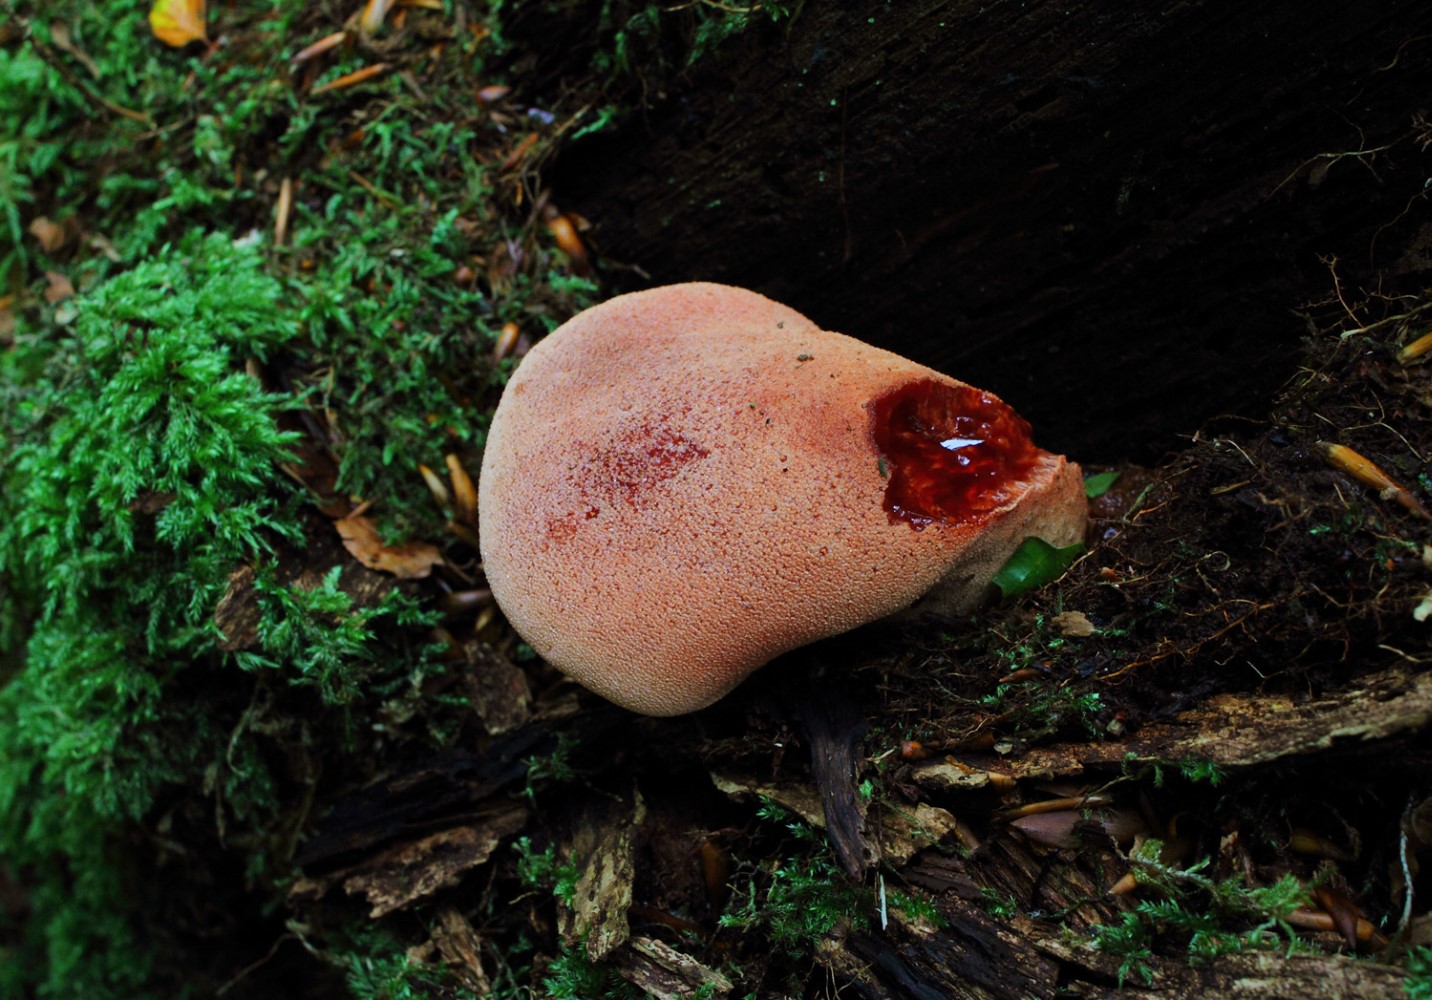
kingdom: Fungi
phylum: Basidiomycota
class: Agaricomycetes
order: Agaricales
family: Fistulinaceae
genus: Fistulina
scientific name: Fistulina hepatica
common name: oksetunge
